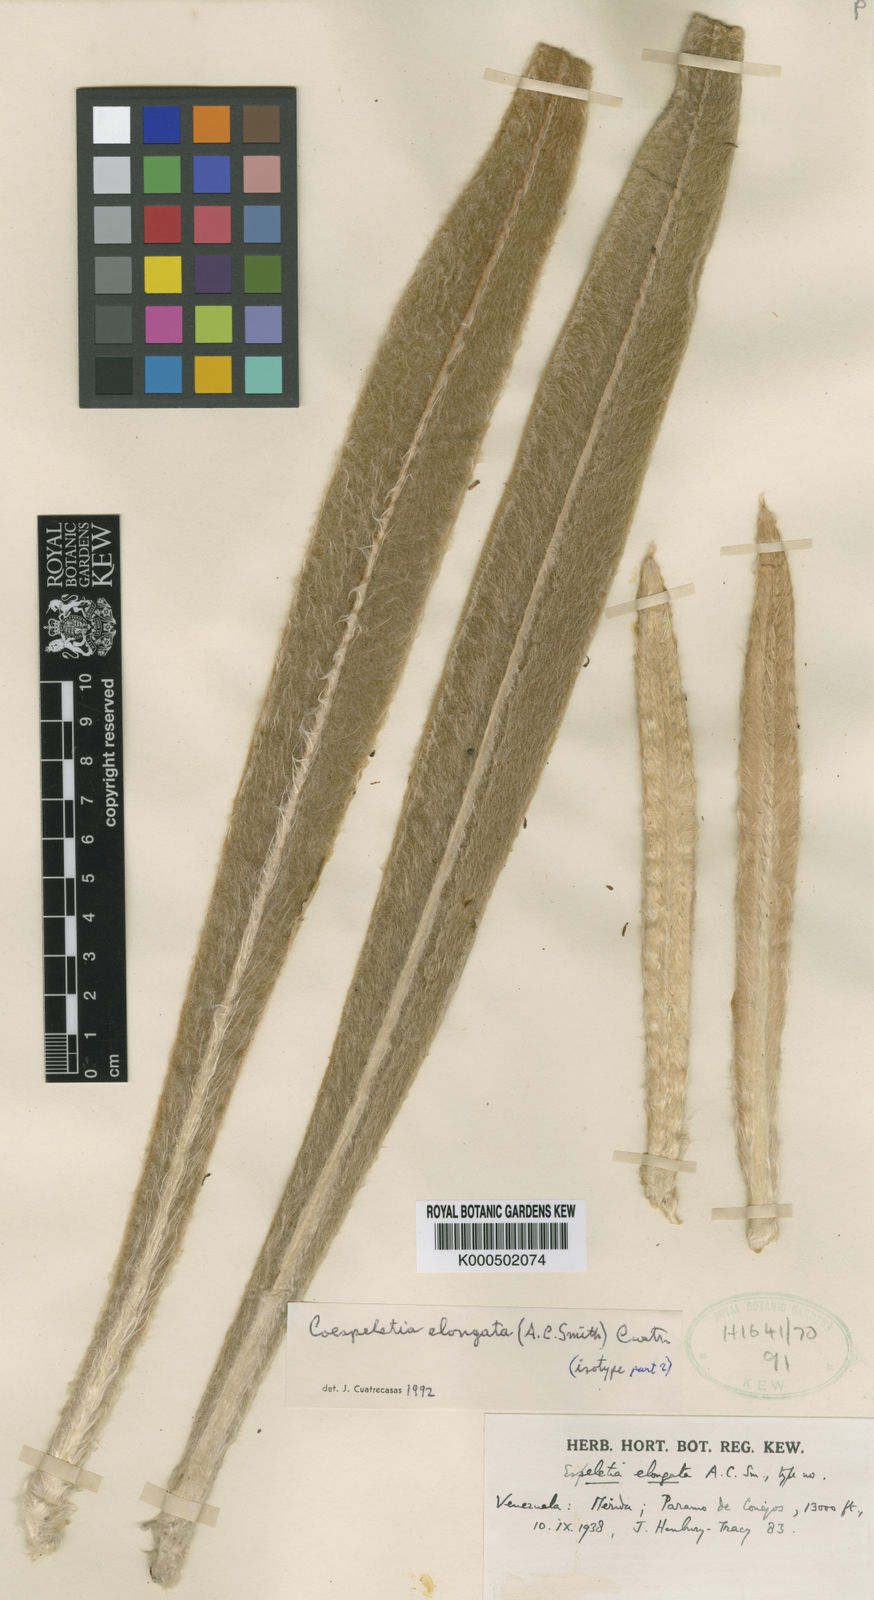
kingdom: Plantae
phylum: Tracheophyta
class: Magnoliopsida
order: Asterales
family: Asteraceae
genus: Espeletia
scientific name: Espeletia elongata
